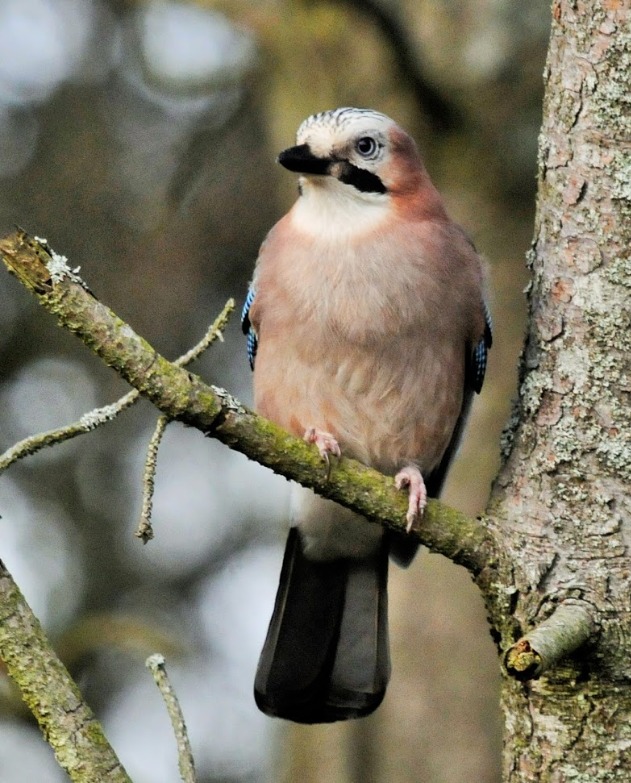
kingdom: Animalia
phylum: Chordata
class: Aves
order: Passeriformes
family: Corvidae
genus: Garrulus
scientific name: Garrulus glandarius
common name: Skovskade
